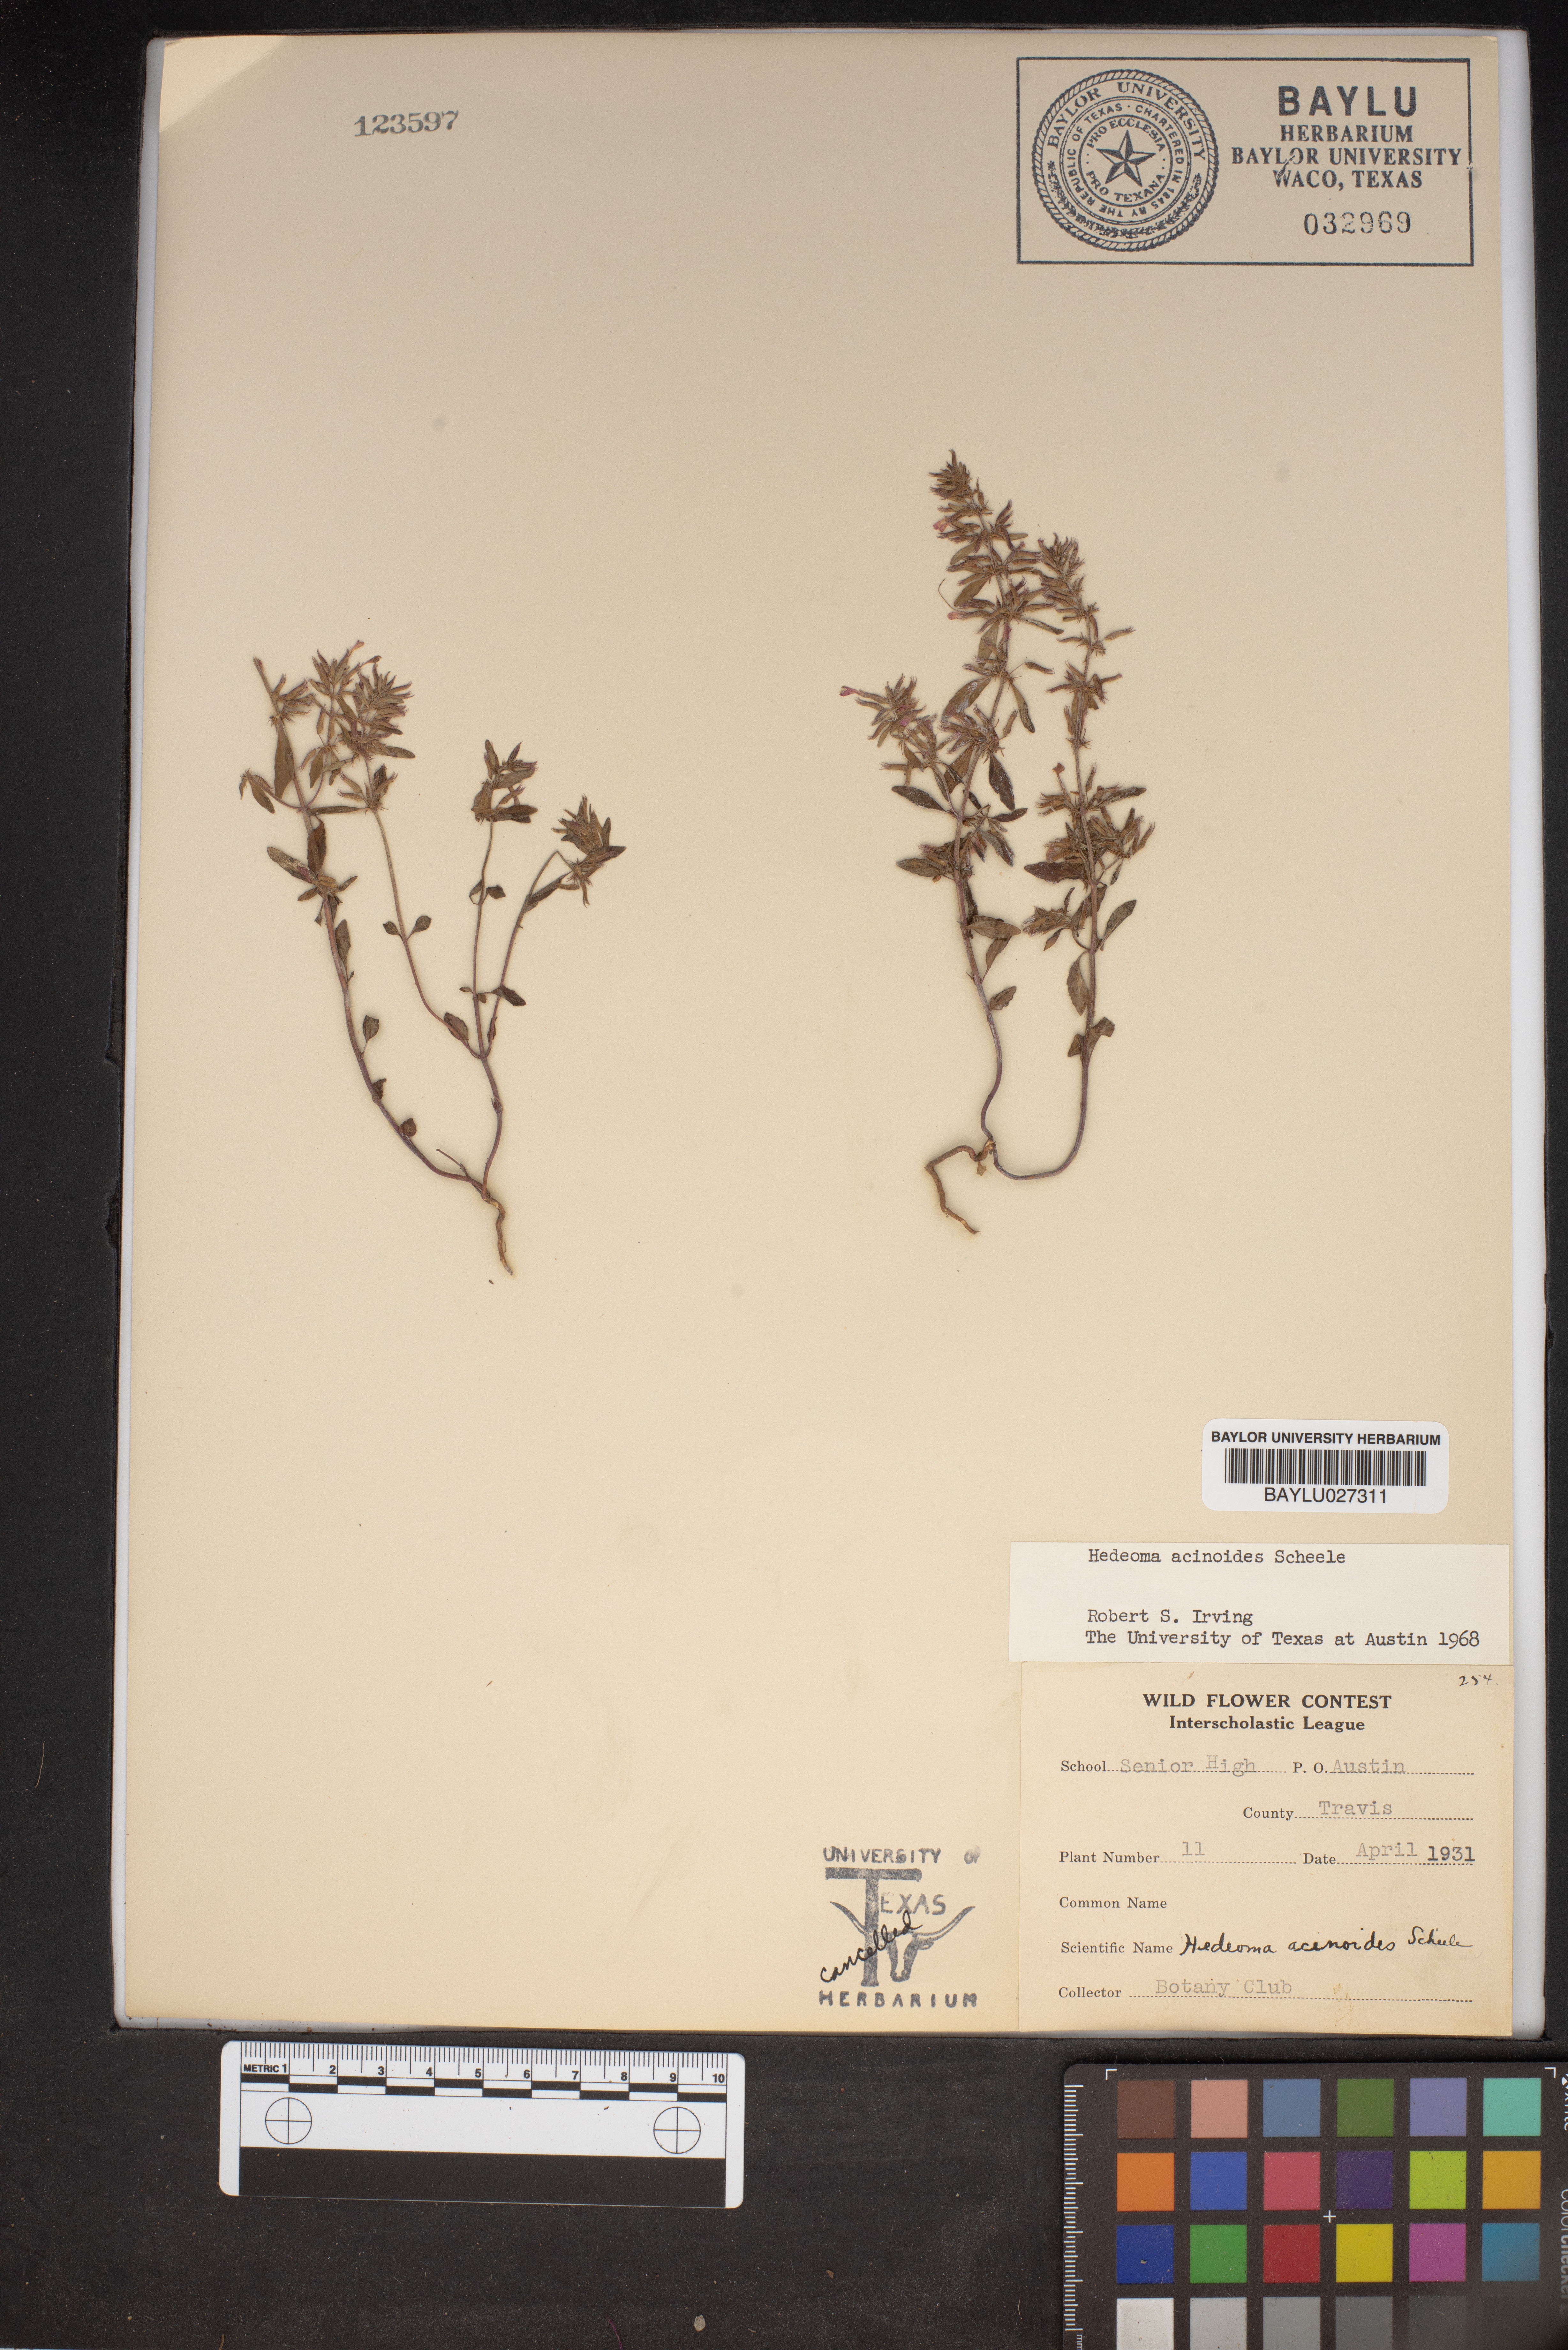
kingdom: Plantae
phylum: Tracheophyta
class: Magnoliopsida
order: Lamiales
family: Lamiaceae
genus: Hedeoma
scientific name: Hedeoma acinoides
